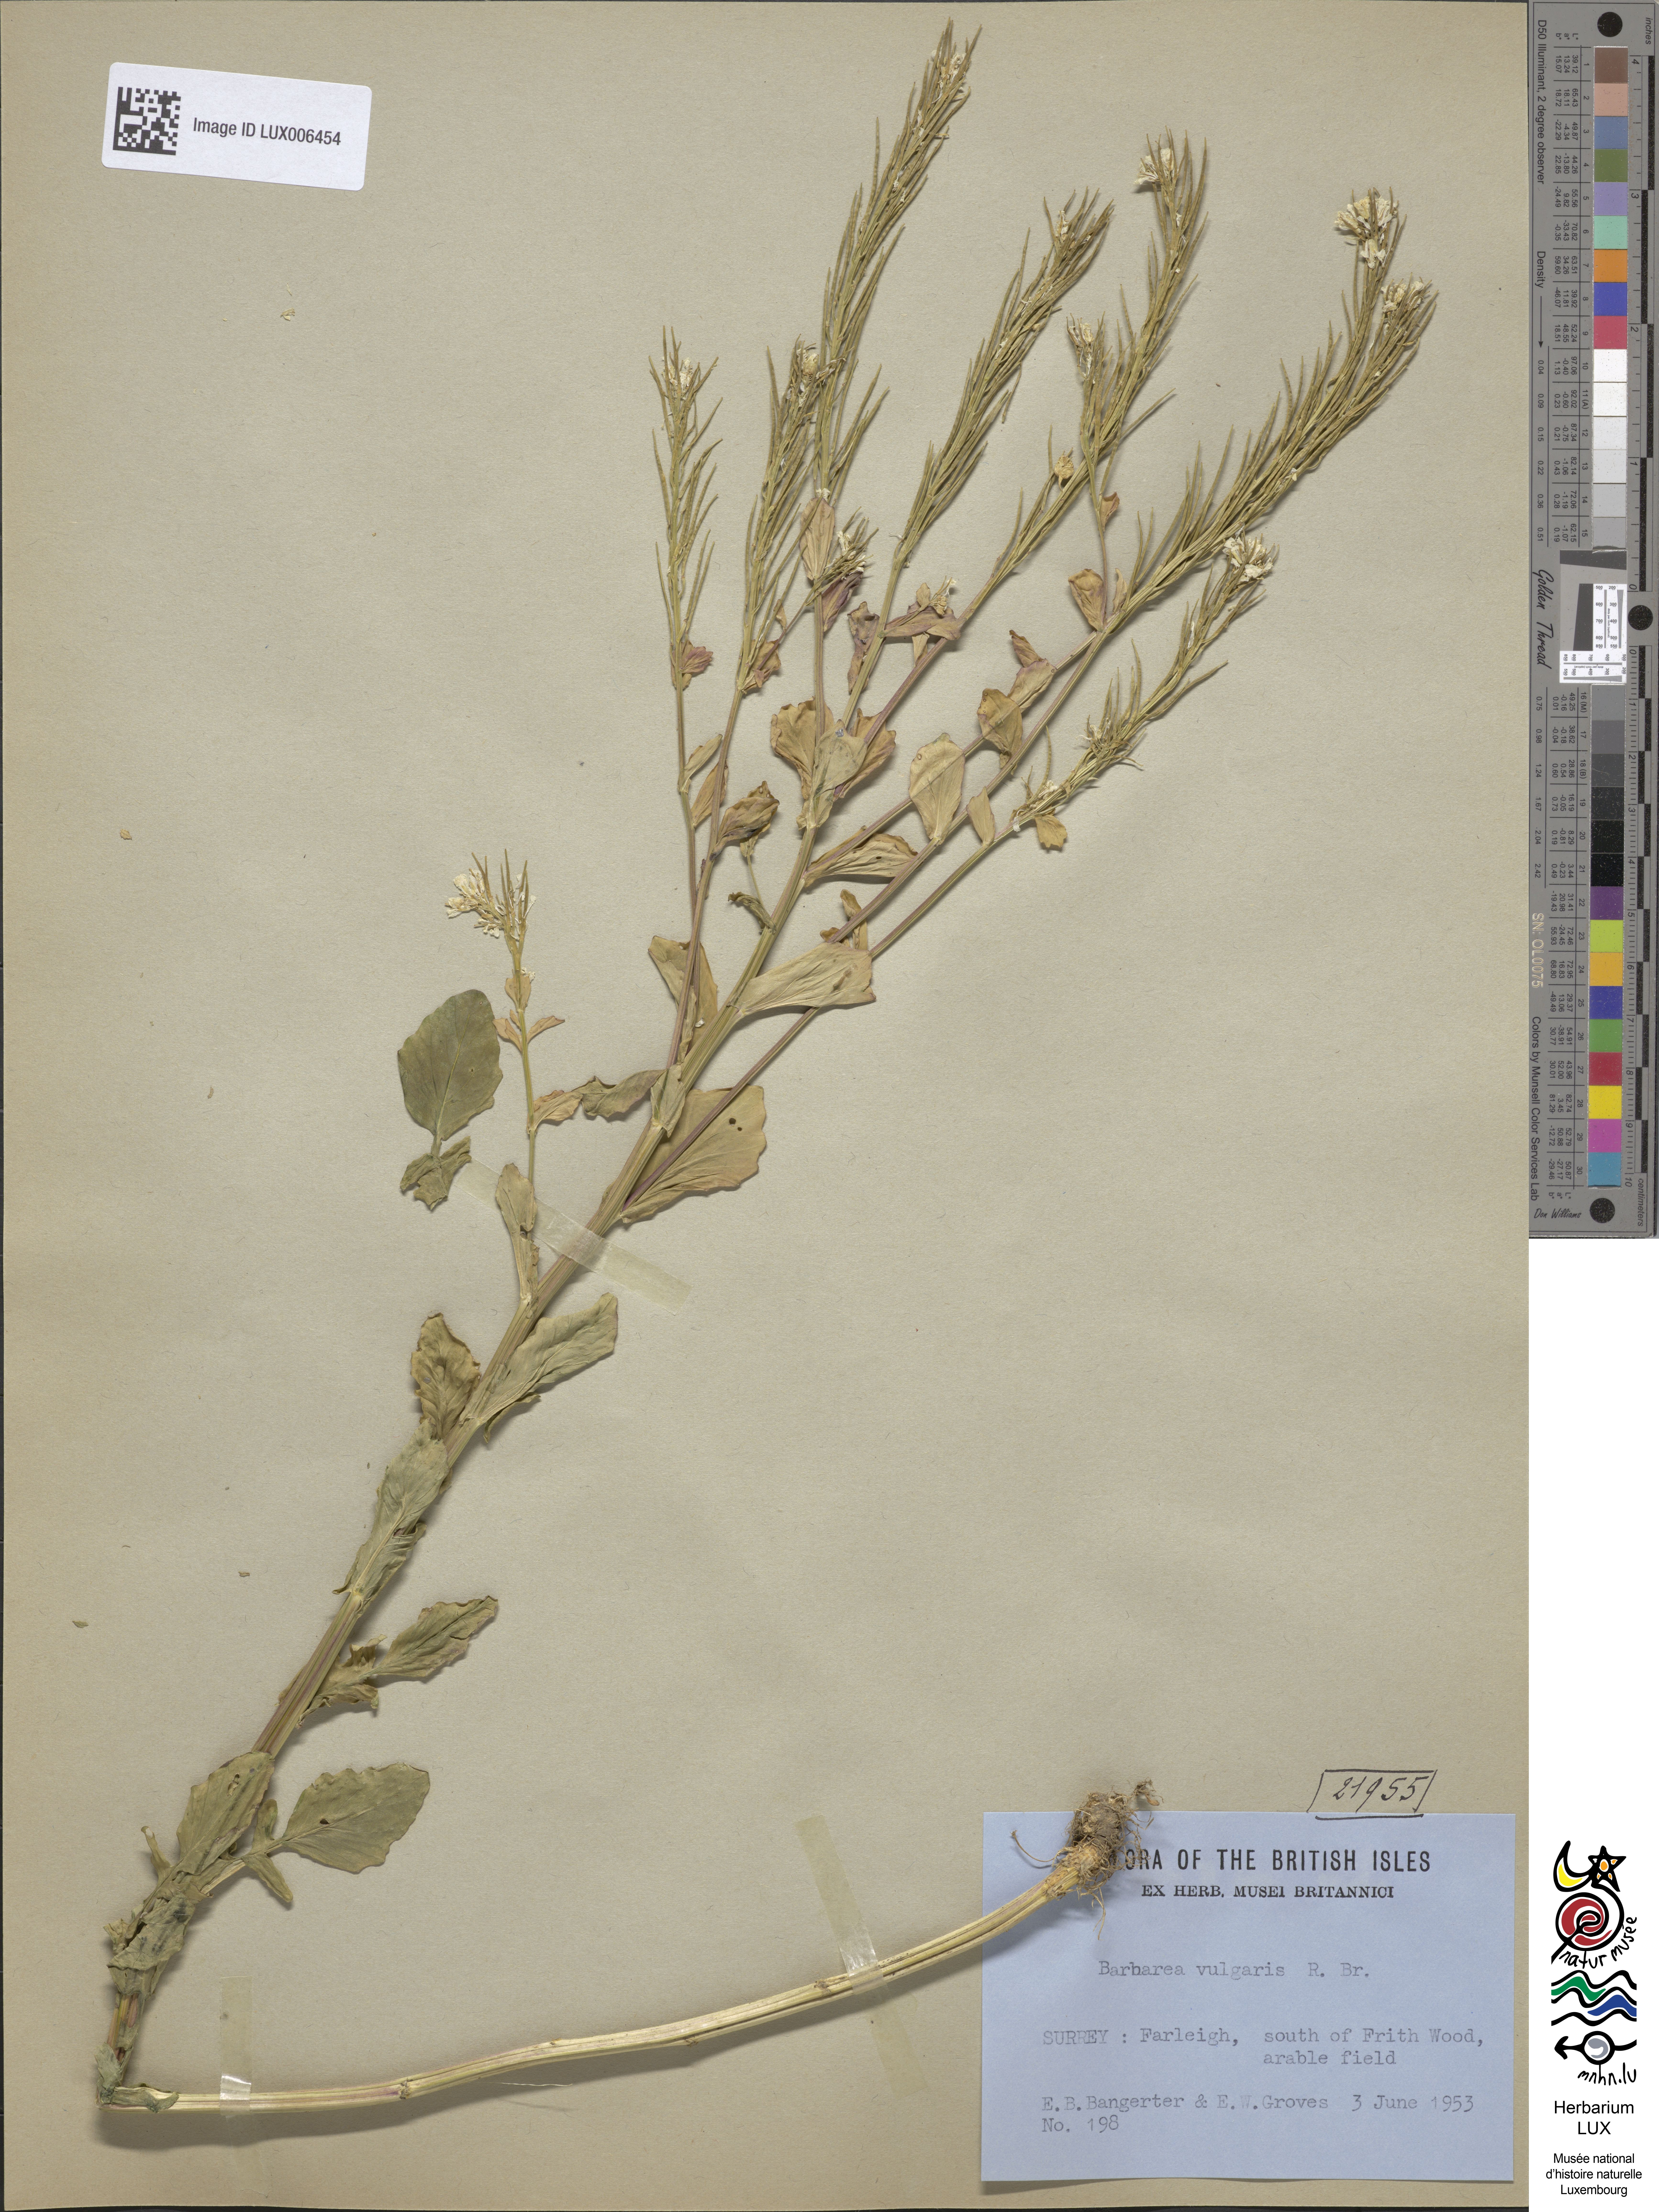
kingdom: Plantae
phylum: Tracheophyta
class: Magnoliopsida
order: Brassicales
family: Brassicaceae
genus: Barbarea
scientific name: Barbarea vulgaris
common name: Cressy-greens
